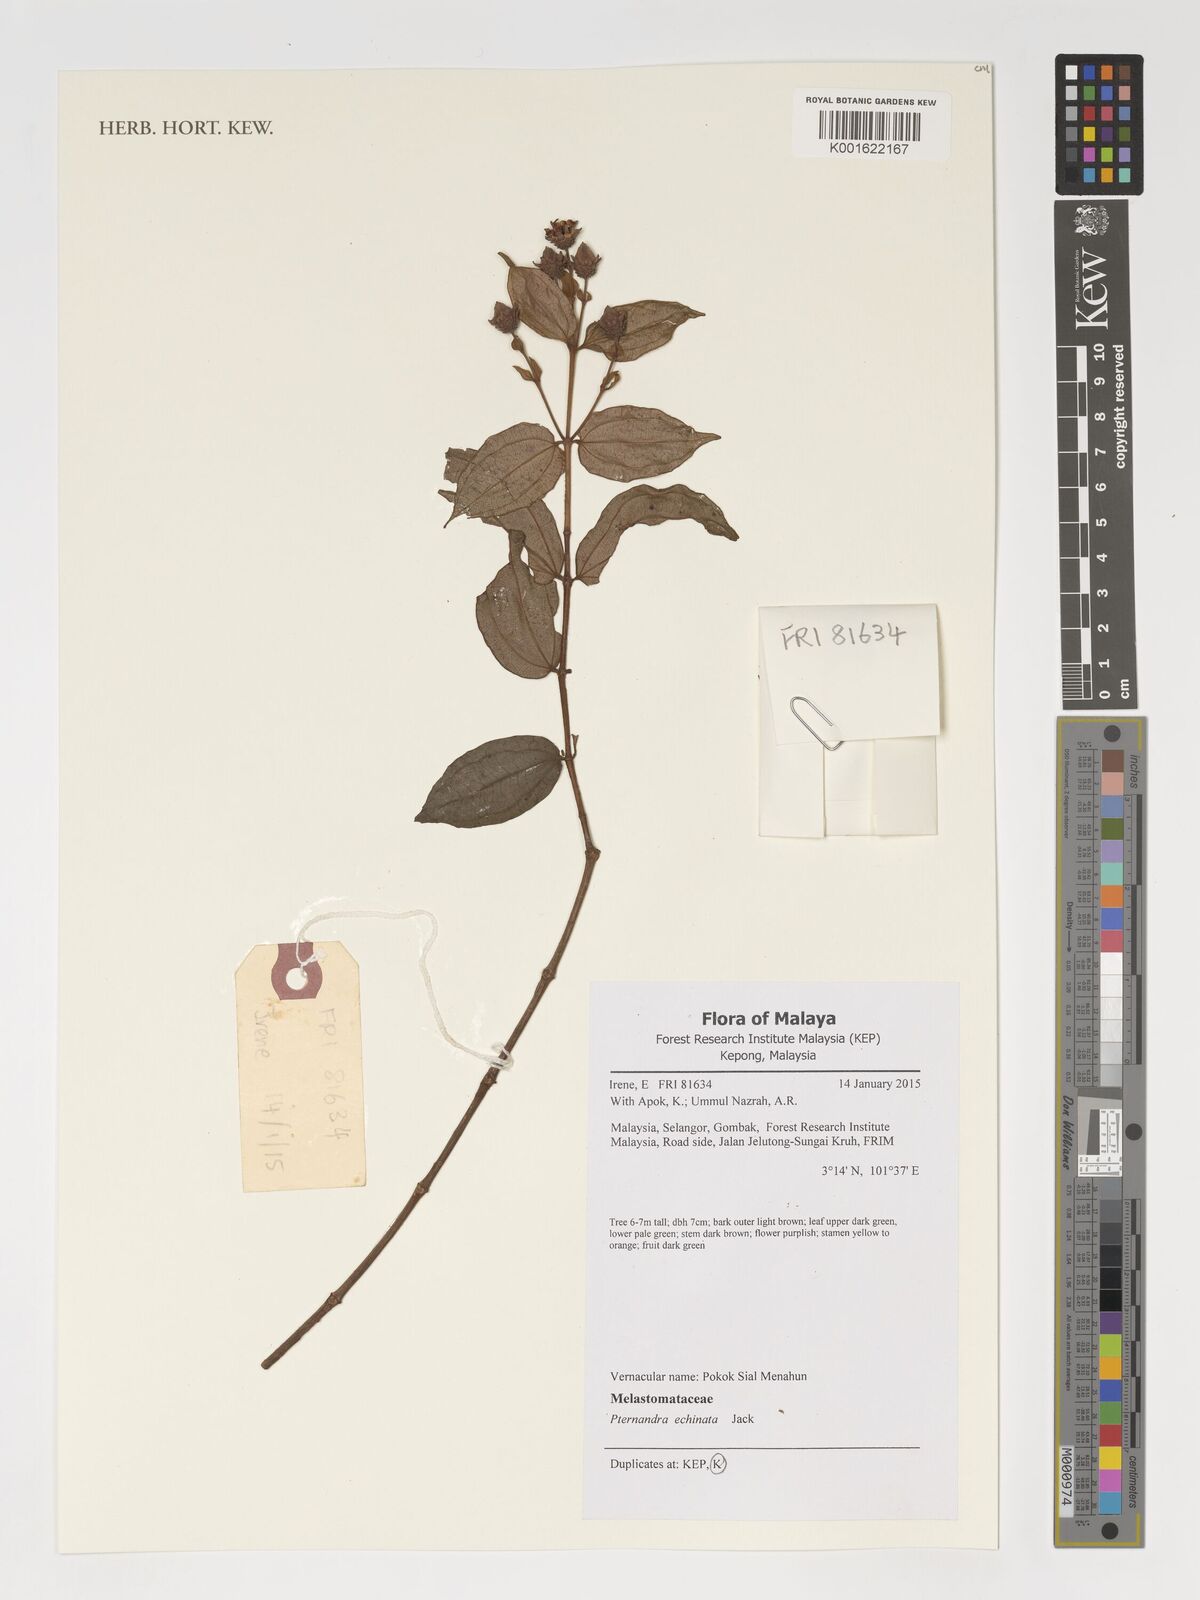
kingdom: Plantae
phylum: Tracheophyta
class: Magnoliopsida
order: Myrtales
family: Melastomataceae
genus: Pternandra
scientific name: Pternandra echinata
